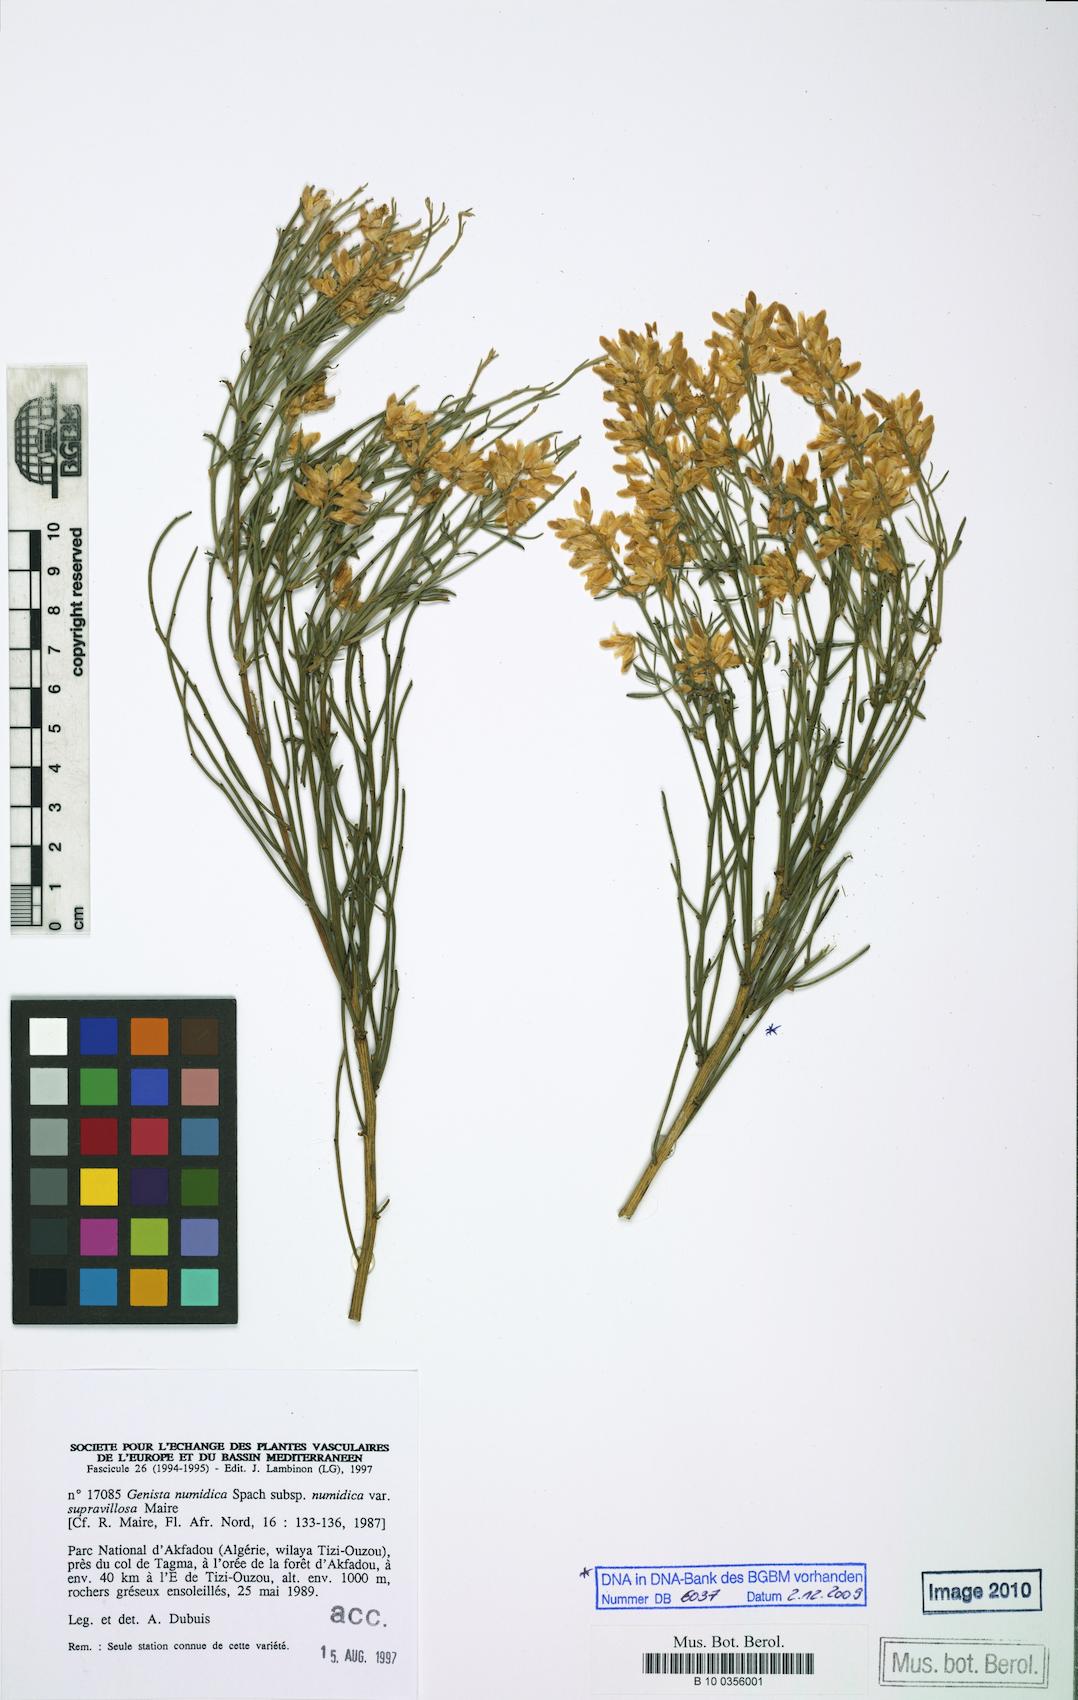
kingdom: Plantae
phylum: Tracheophyta
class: Magnoliopsida
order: Fabales
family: Fabaceae
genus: Genista
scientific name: Genista numidica
